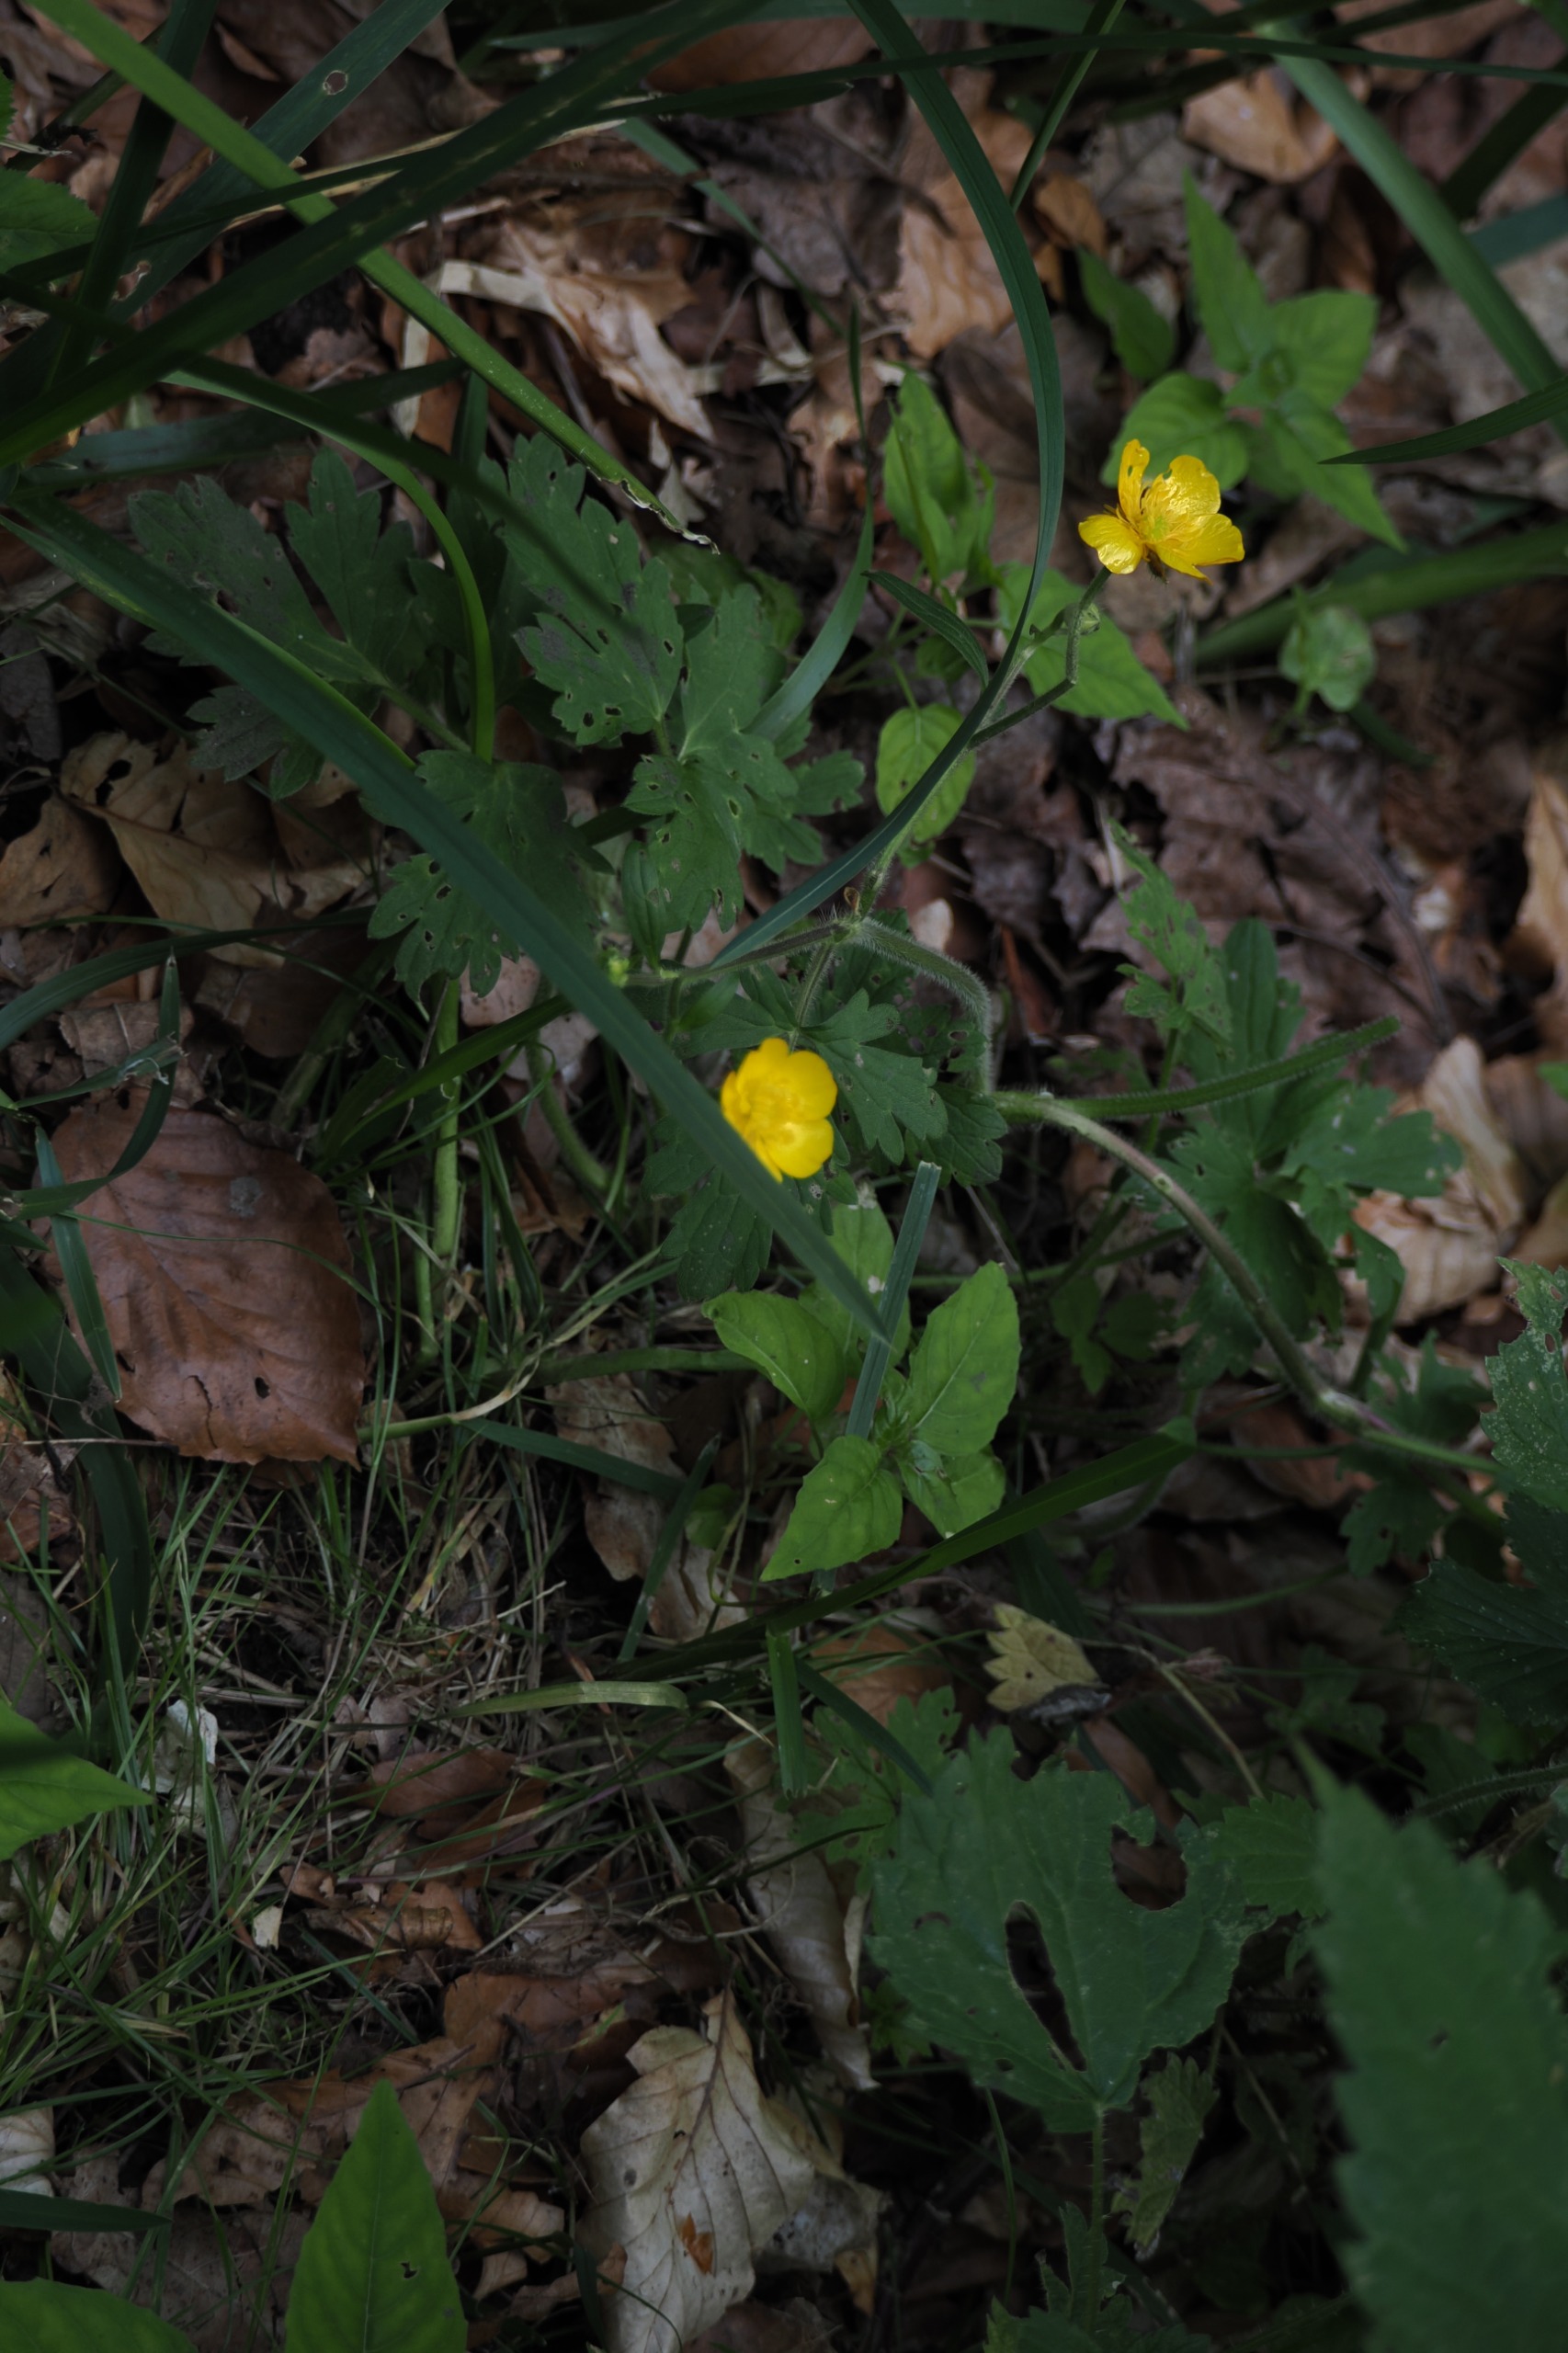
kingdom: Plantae
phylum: Tracheophyta
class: Magnoliopsida
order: Ranunculales
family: Ranunculaceae
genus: Ranunculus
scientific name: Ranunculus repens
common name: Lav ranunkel
